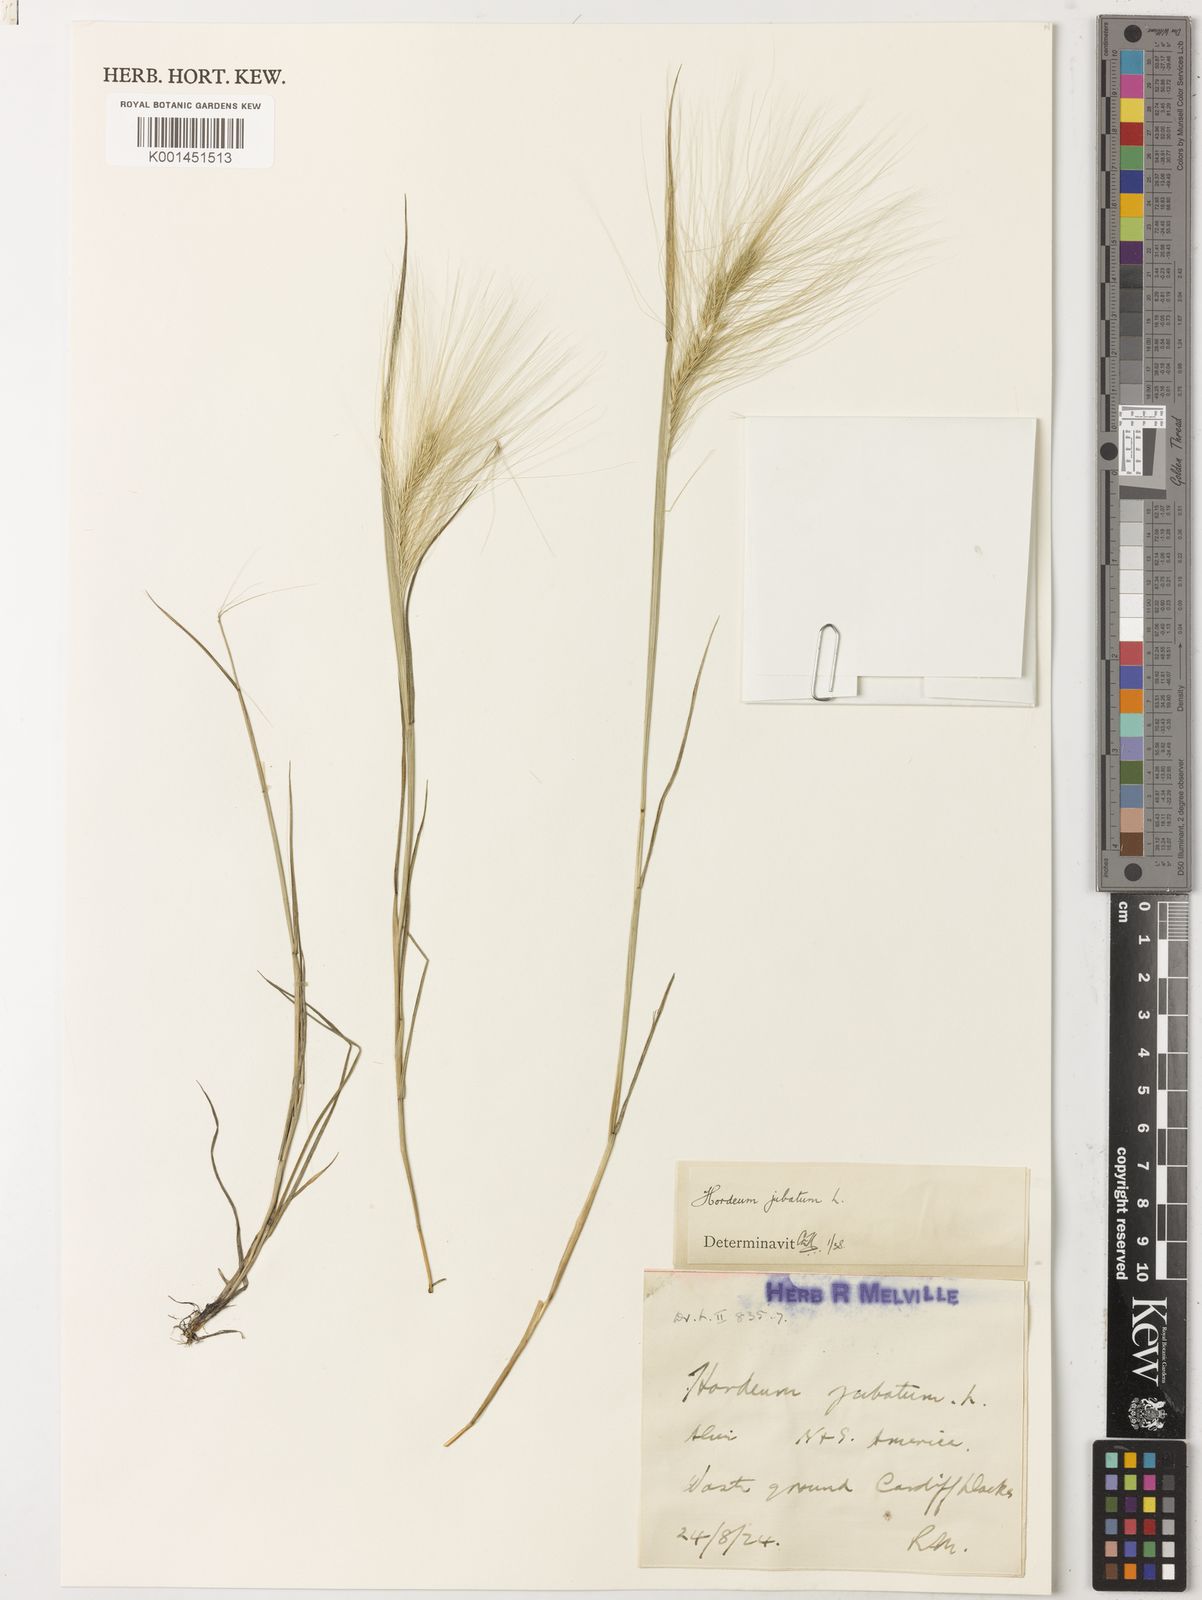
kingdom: Plantae
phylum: Tracheophyta
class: Liliopsida
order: Poales
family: Poaceae
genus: Hordeum
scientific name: Hordeum jubatum
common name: Foxtail barley
